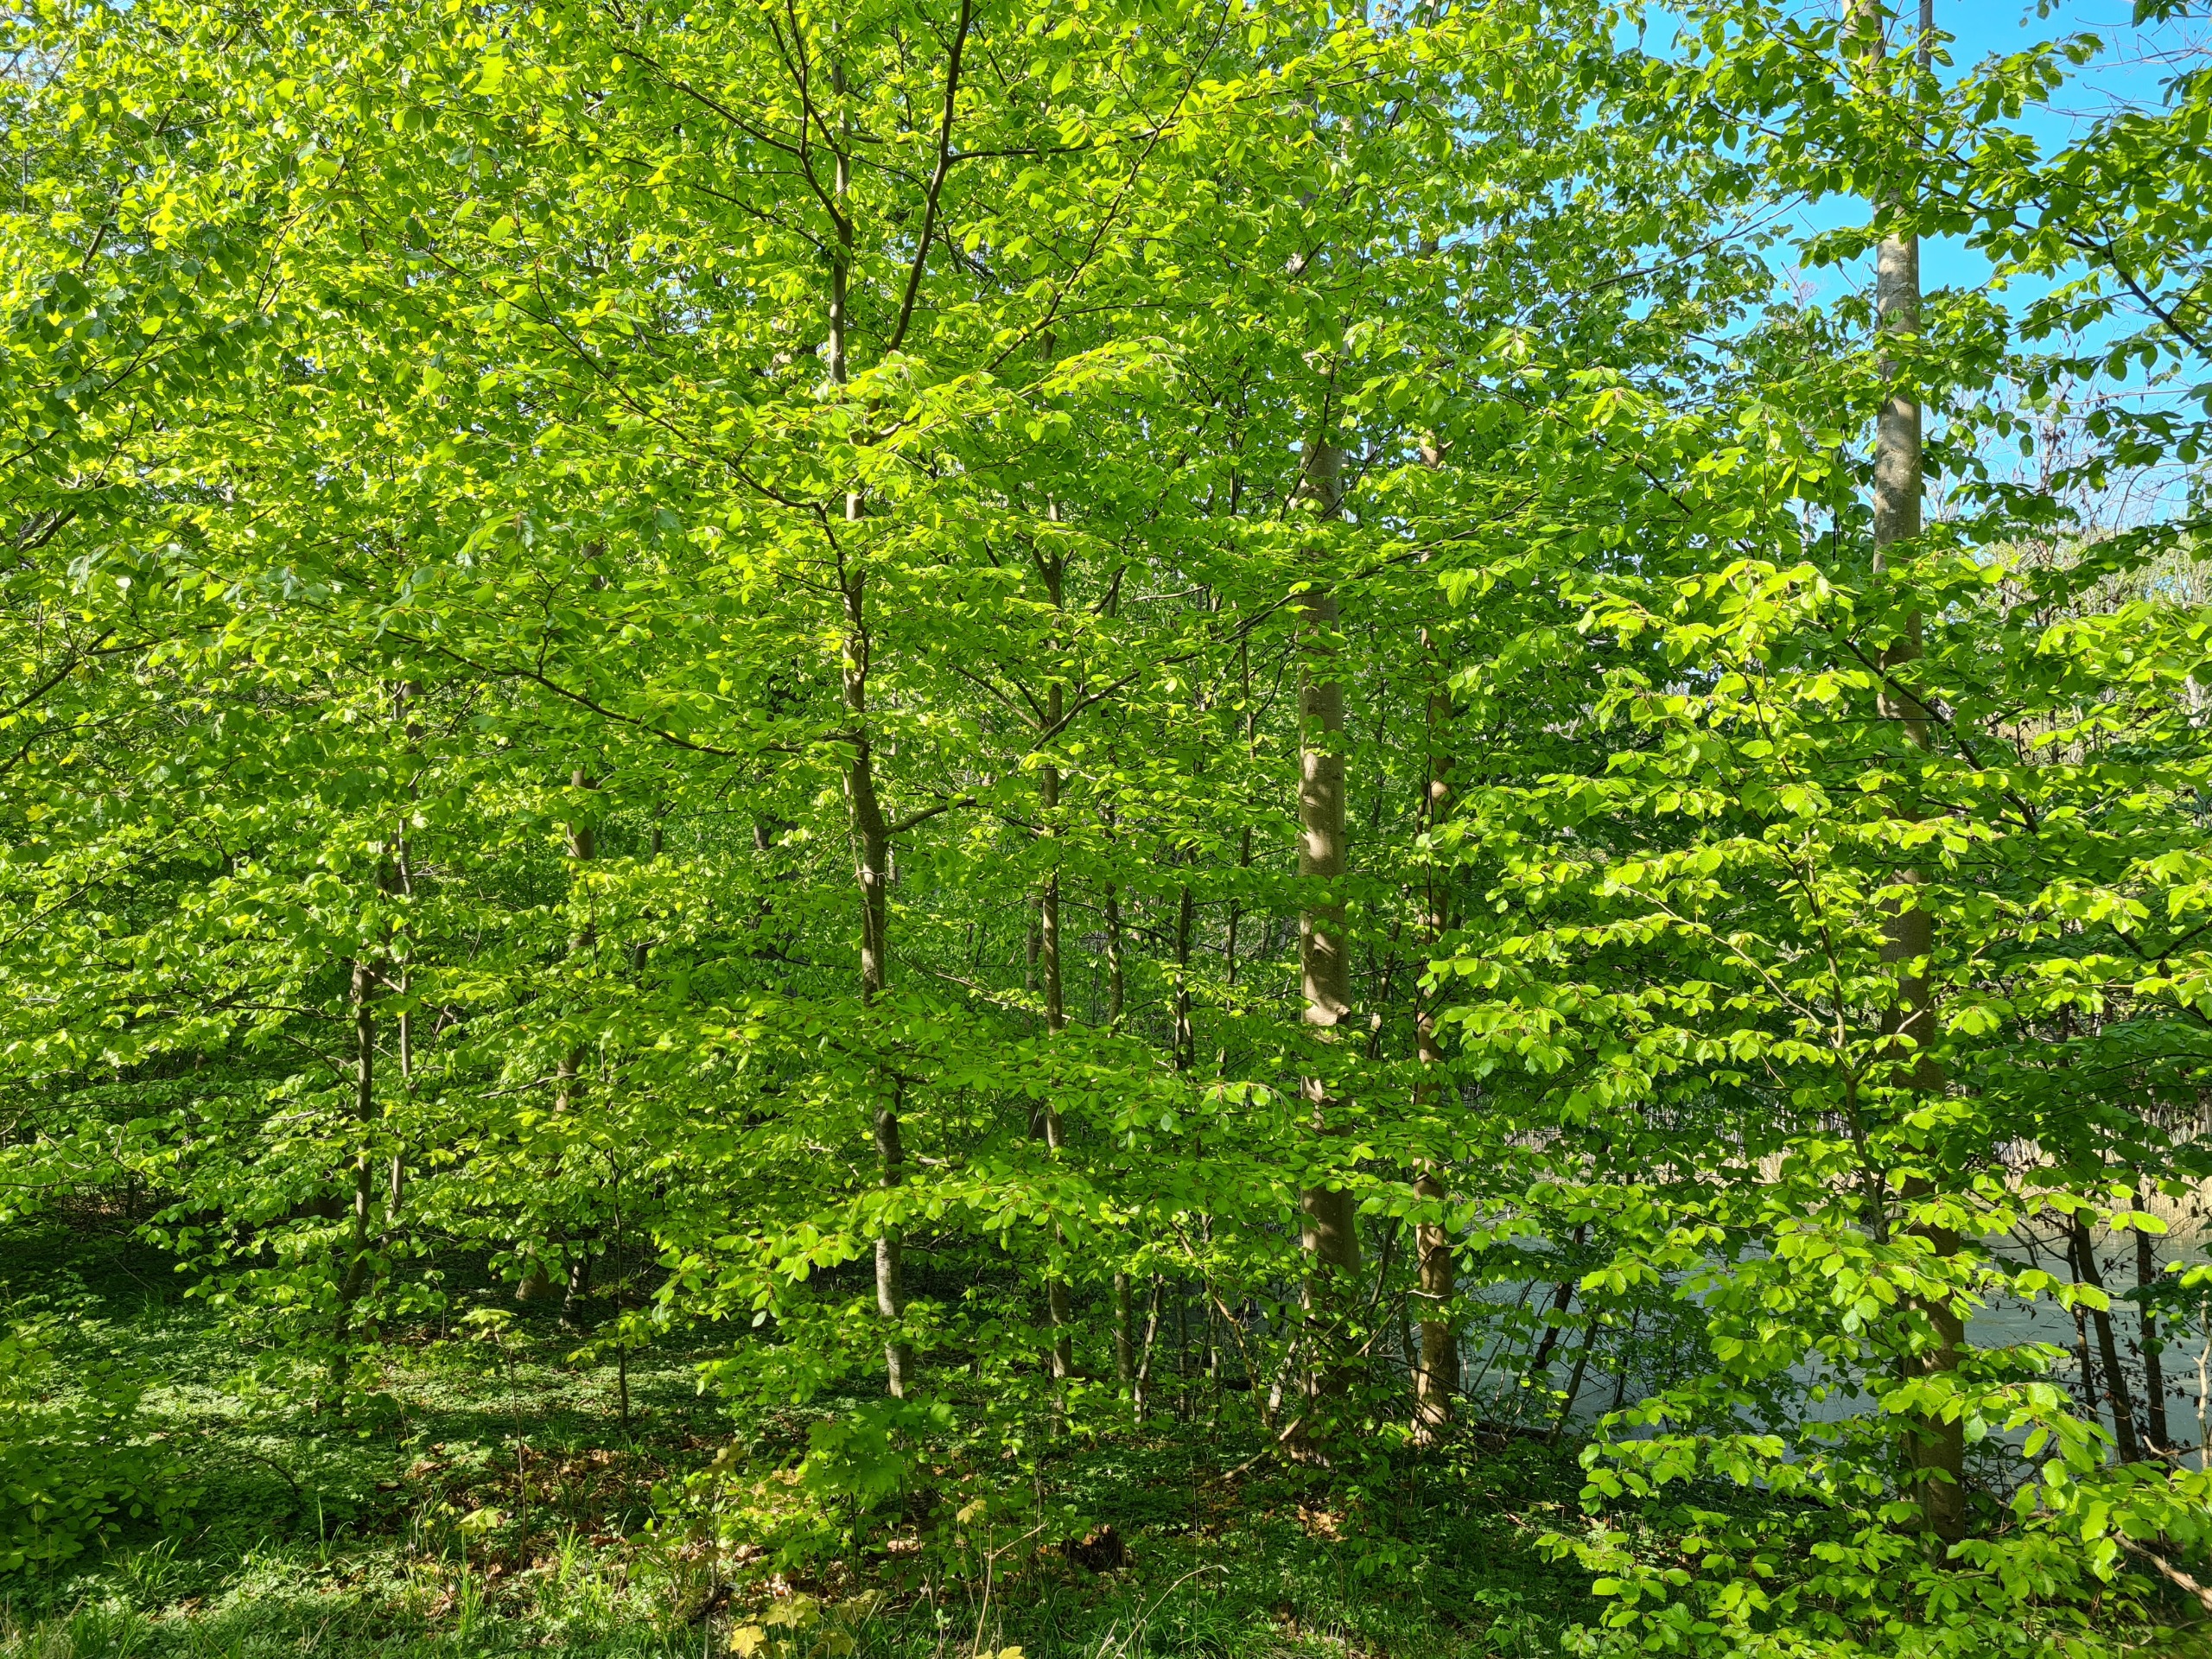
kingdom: Plantae
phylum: Tracheophyta
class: Magnoliopsida
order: Fagales
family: Fagaceae
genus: Fagus
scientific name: Fagus sylvatica
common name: Bøg
